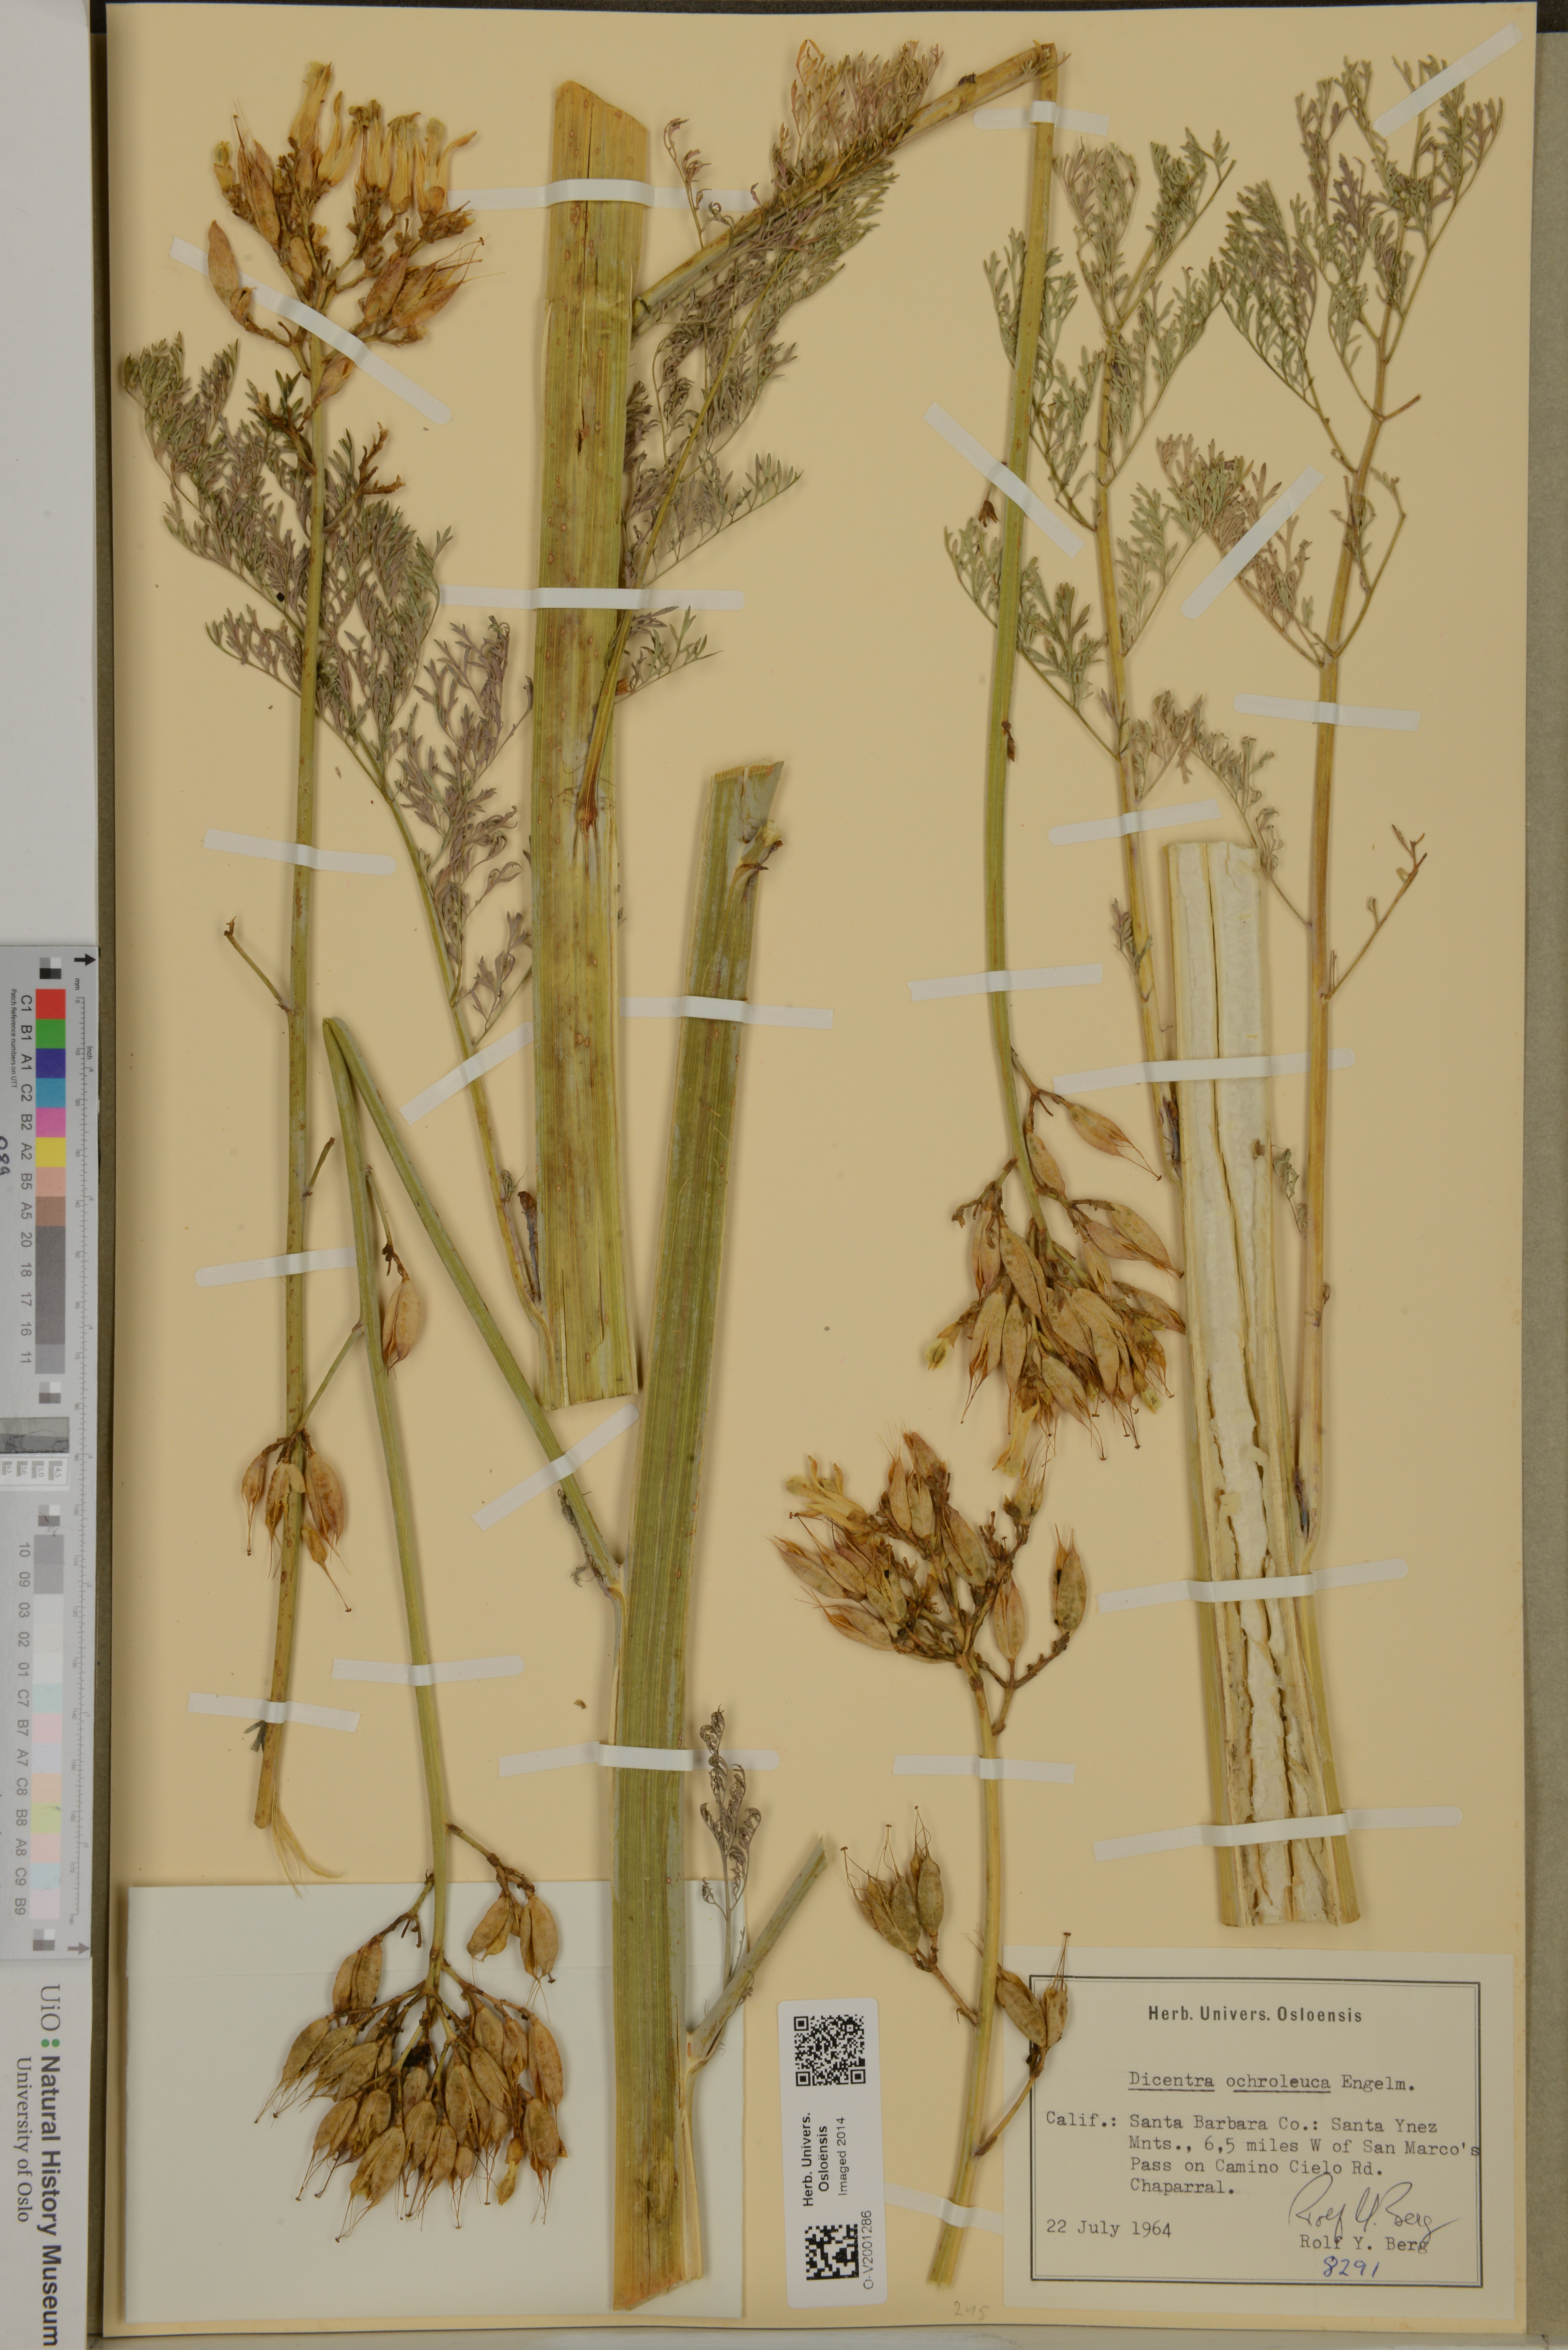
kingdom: Plantae
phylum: Tracheophyta
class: Magnoliopsida
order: Ranunculales
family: Papaveraceae
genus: Ehrendorferia
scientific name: Ehrendorferia ochroleuca
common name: White eardrops
